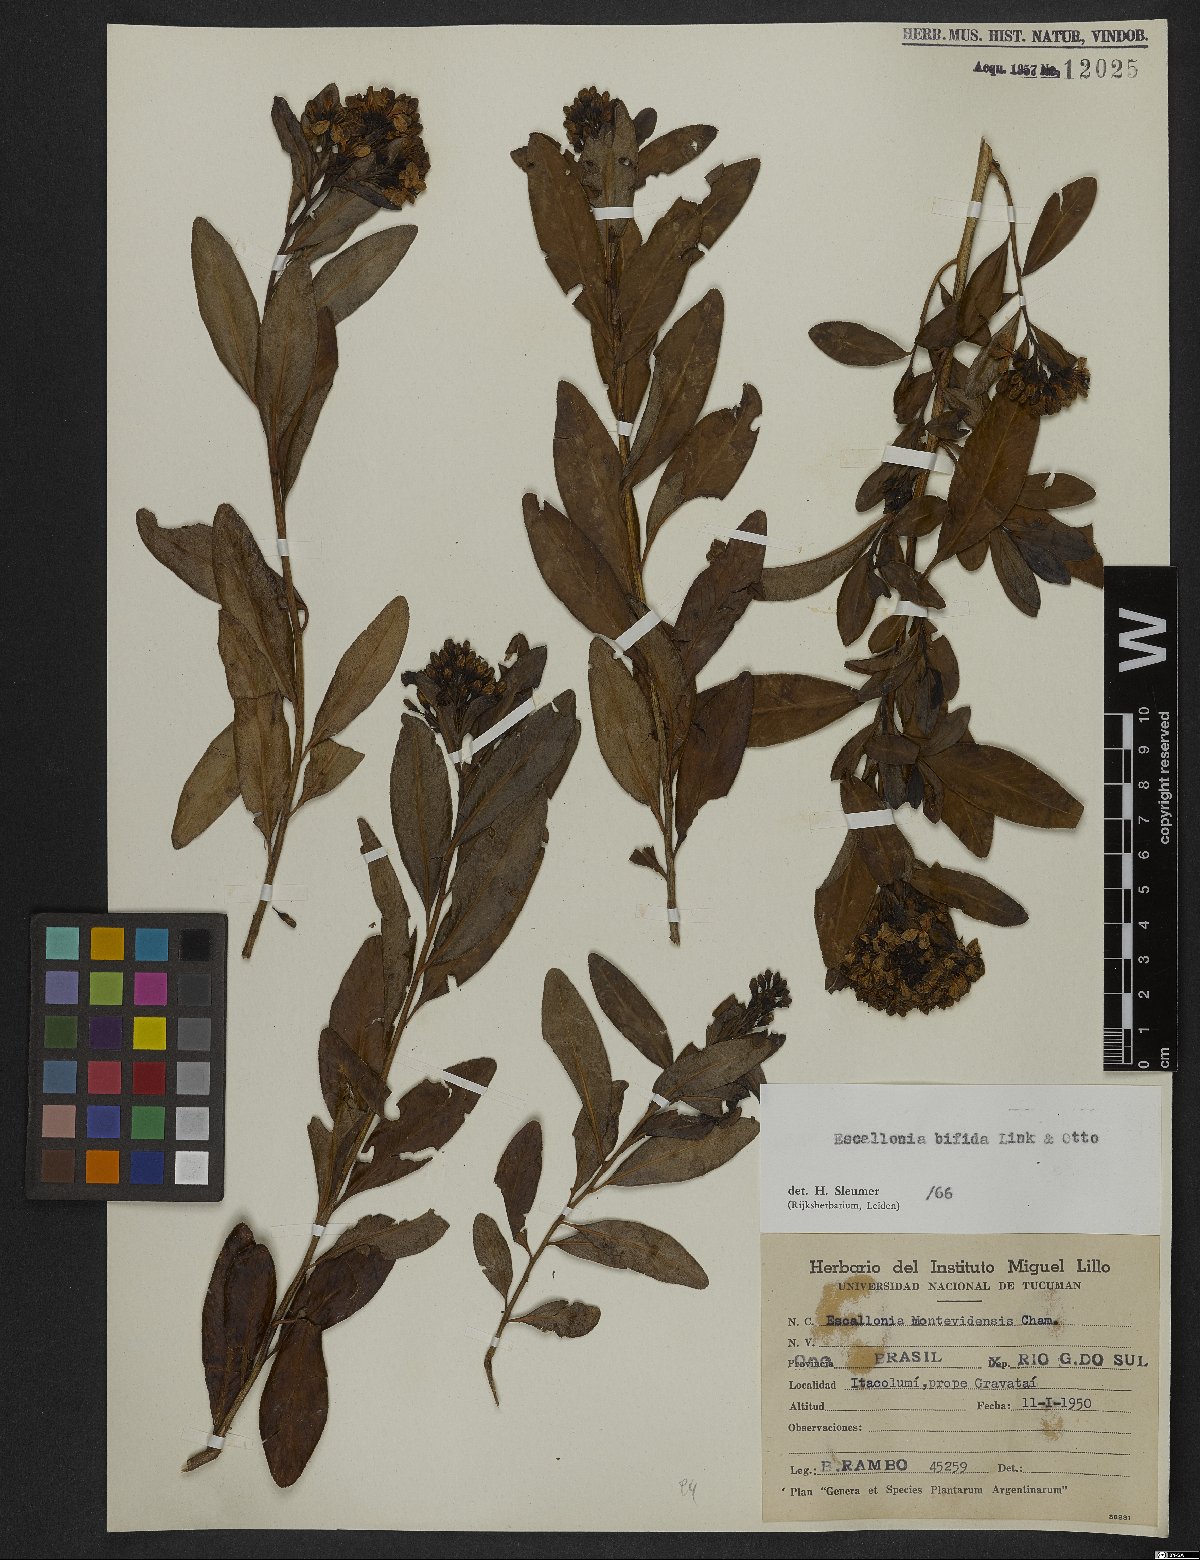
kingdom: Plantae
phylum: Tracheophyta
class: Magnoliopsida
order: Escalloniales
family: Escalloniaceae
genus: Escallonia
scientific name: Escallonia bifida
